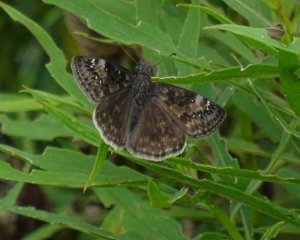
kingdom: Animalia
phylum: Arthropoda
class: Insecta
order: Lepidoptera
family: Hesperiidae
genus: Gesta
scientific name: Gesta
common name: Wild Indigo Duskywing
